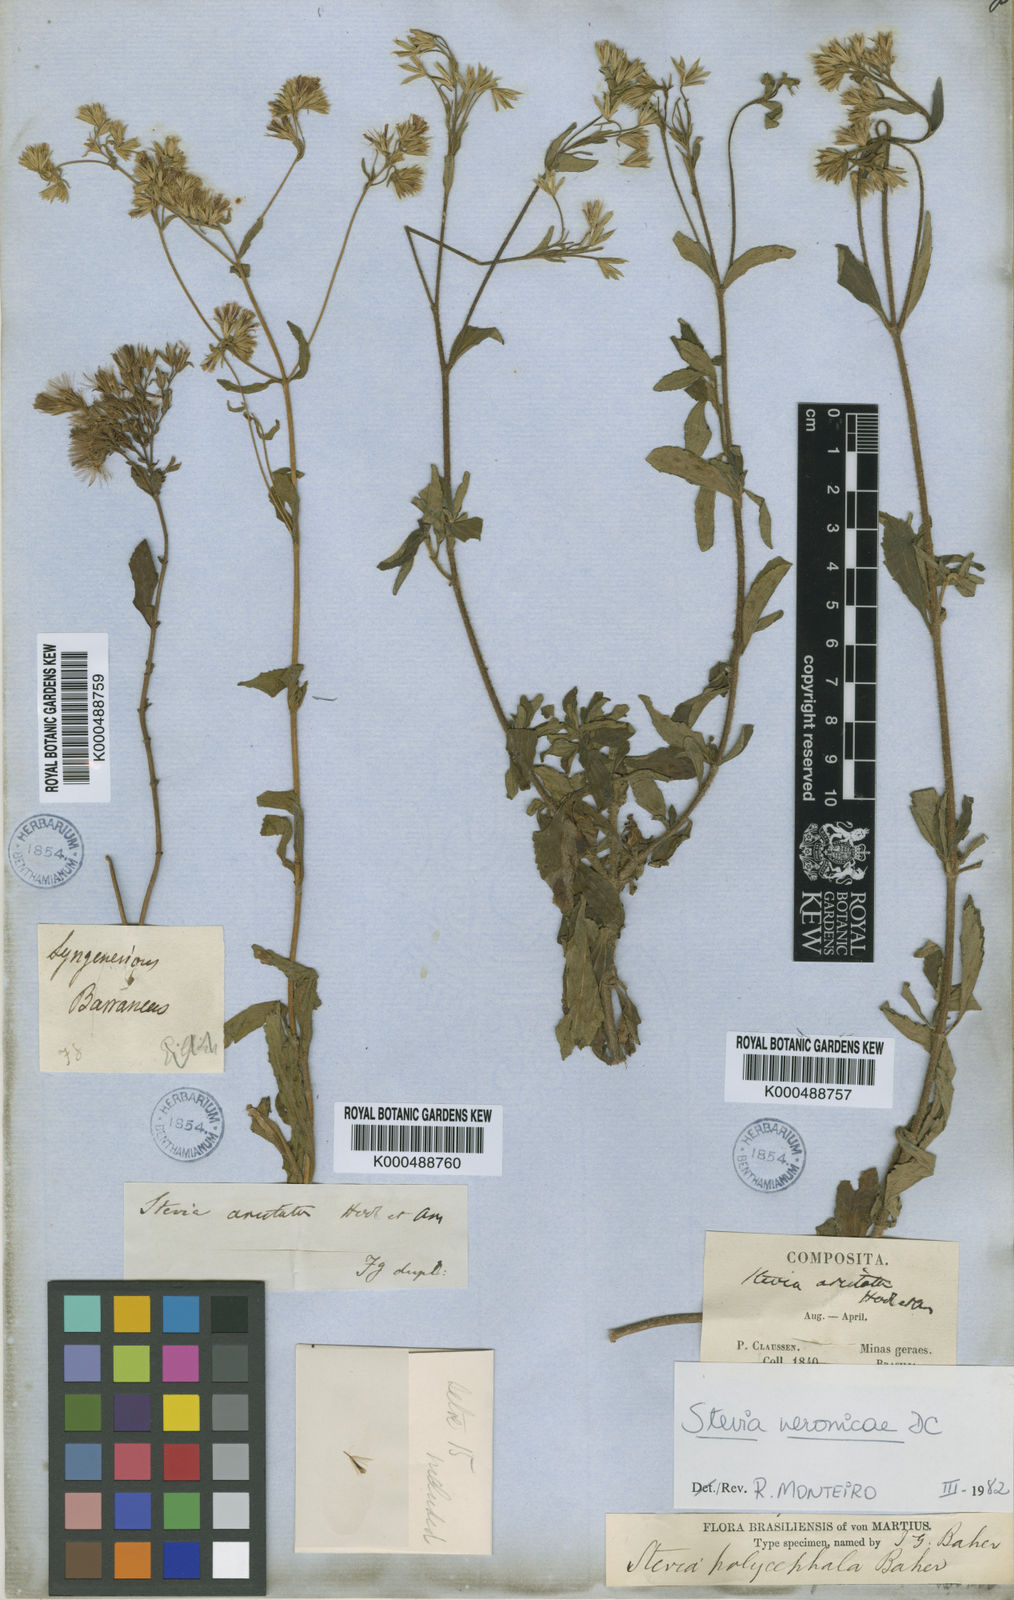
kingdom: Plantae
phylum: Tracheophyta
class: Magnoliopsida
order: Asterales
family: Asteraceae
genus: Stevia
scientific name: Stevia polycephala
